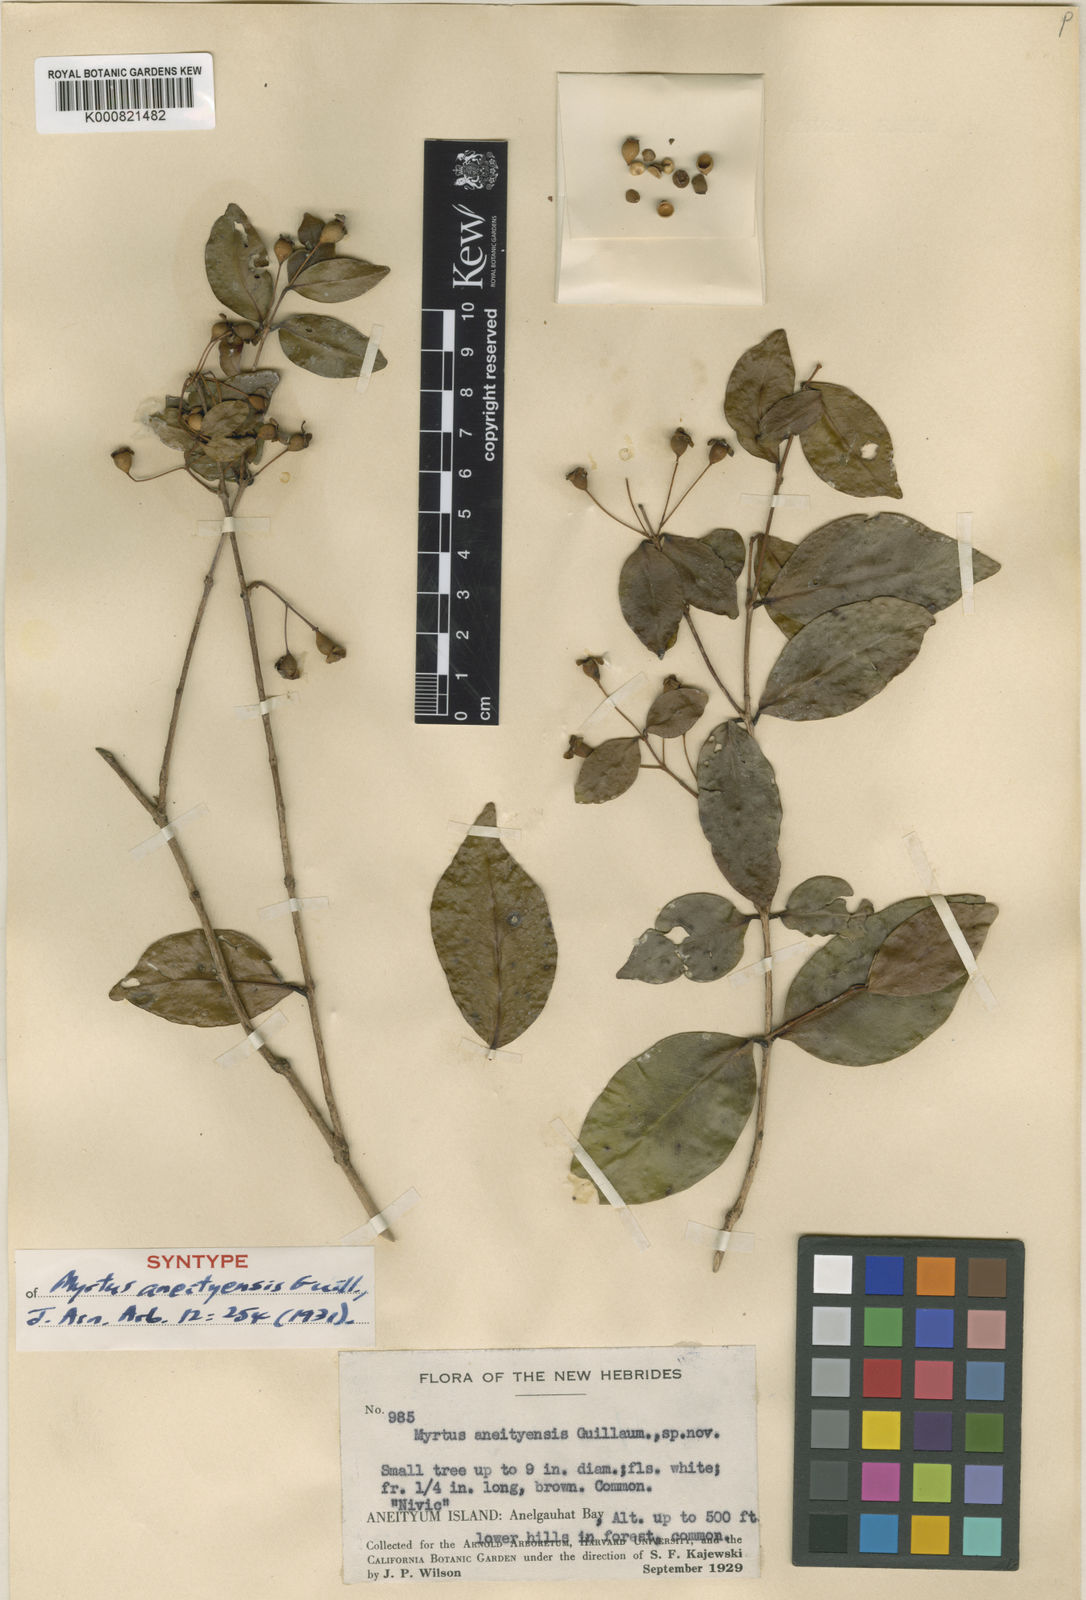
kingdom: Plantae
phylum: Tracheophyta
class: Magnoliopsida
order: Myrtales
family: Myrtaceae
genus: Gossia
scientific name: Gossia vieillardii
